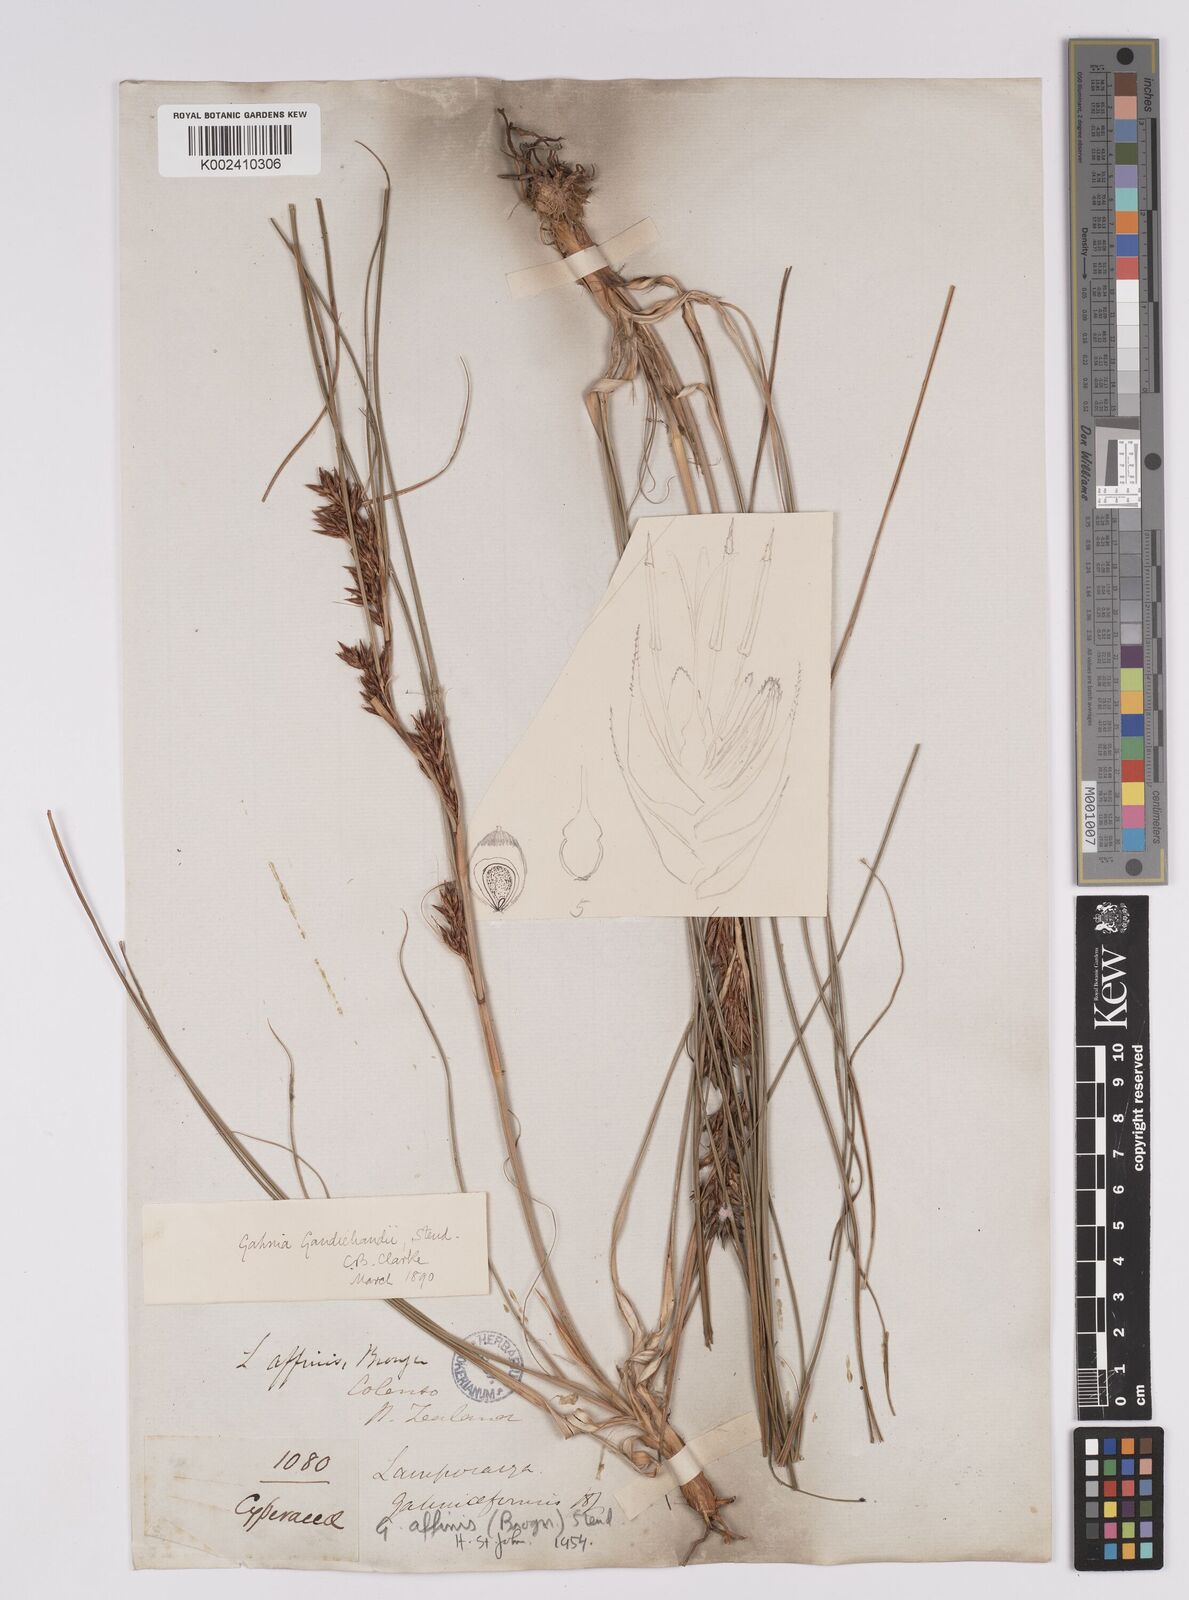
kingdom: Plantae
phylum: Tracheophyta
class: Liliopsida
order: Poales
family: Cyperaceae
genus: Morelotia
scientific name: Morelotia affinis
